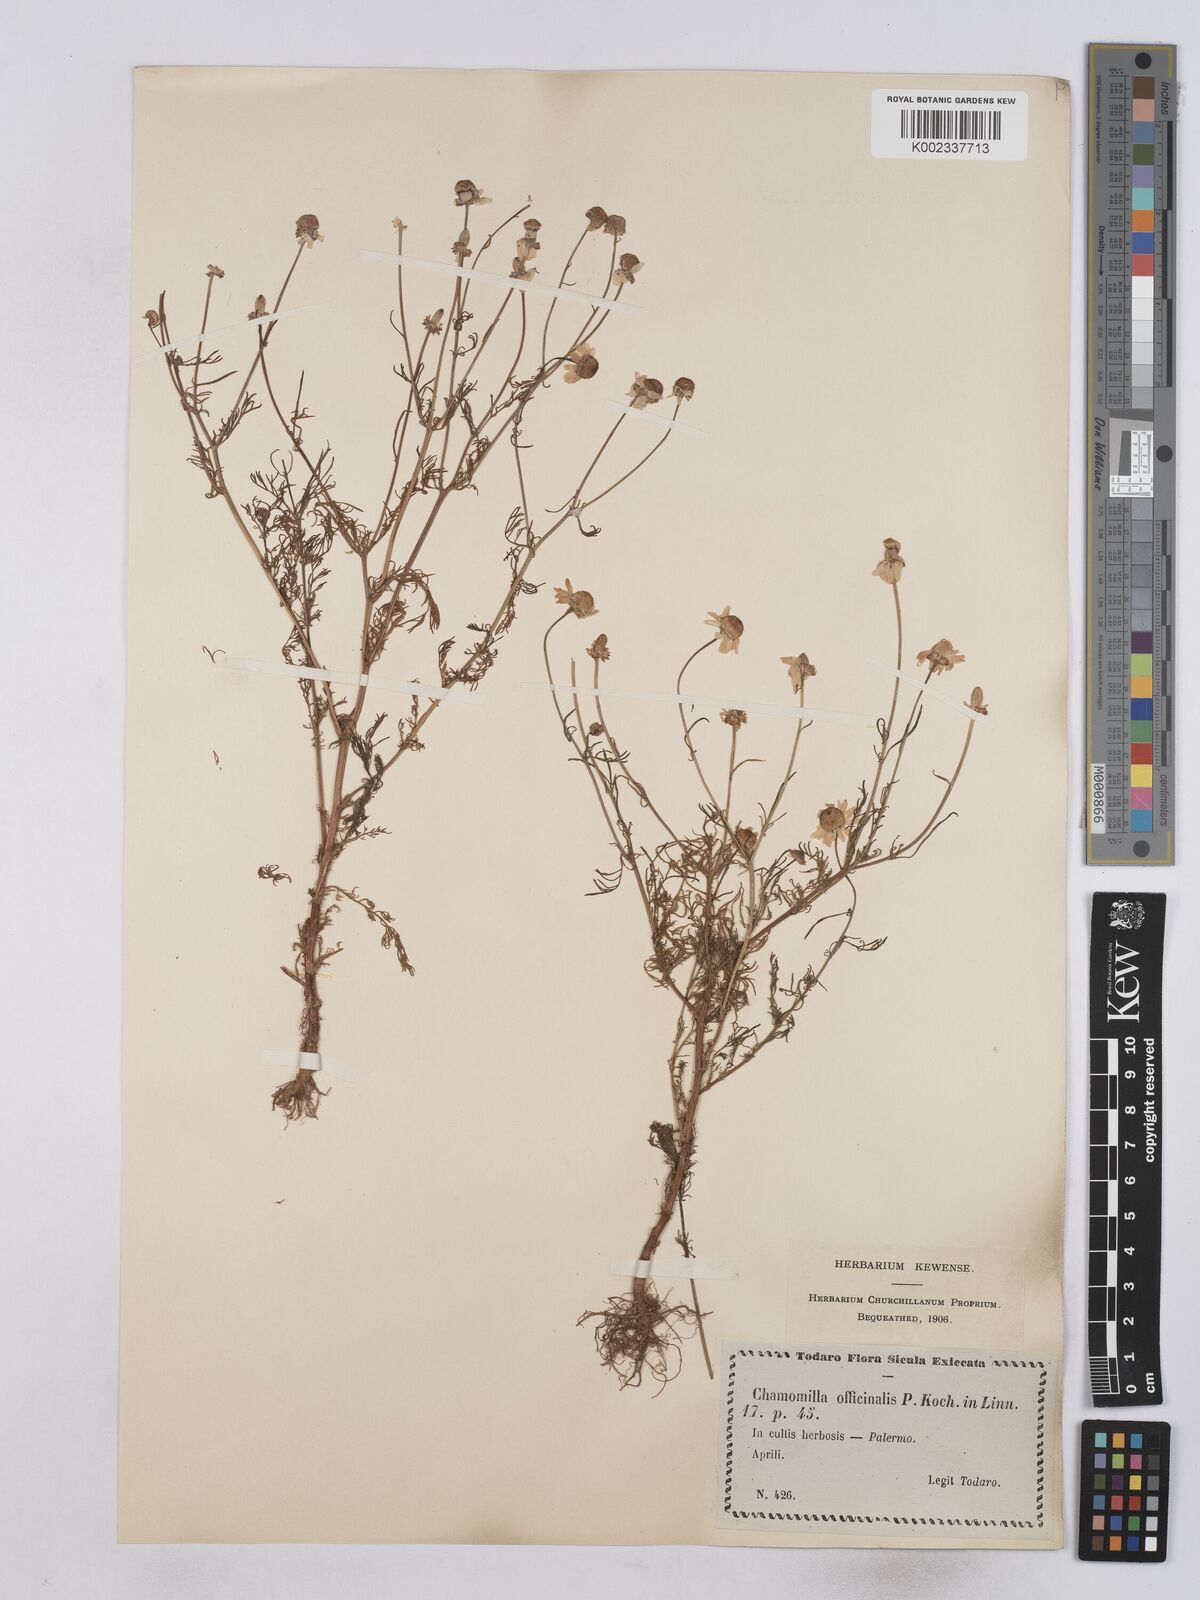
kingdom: Plantae
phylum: Tracheophyta
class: Magnoliopsida
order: Asterales
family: Asteraceae
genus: Matricaria
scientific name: Matricaria discoidea
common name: Disc mayweed
